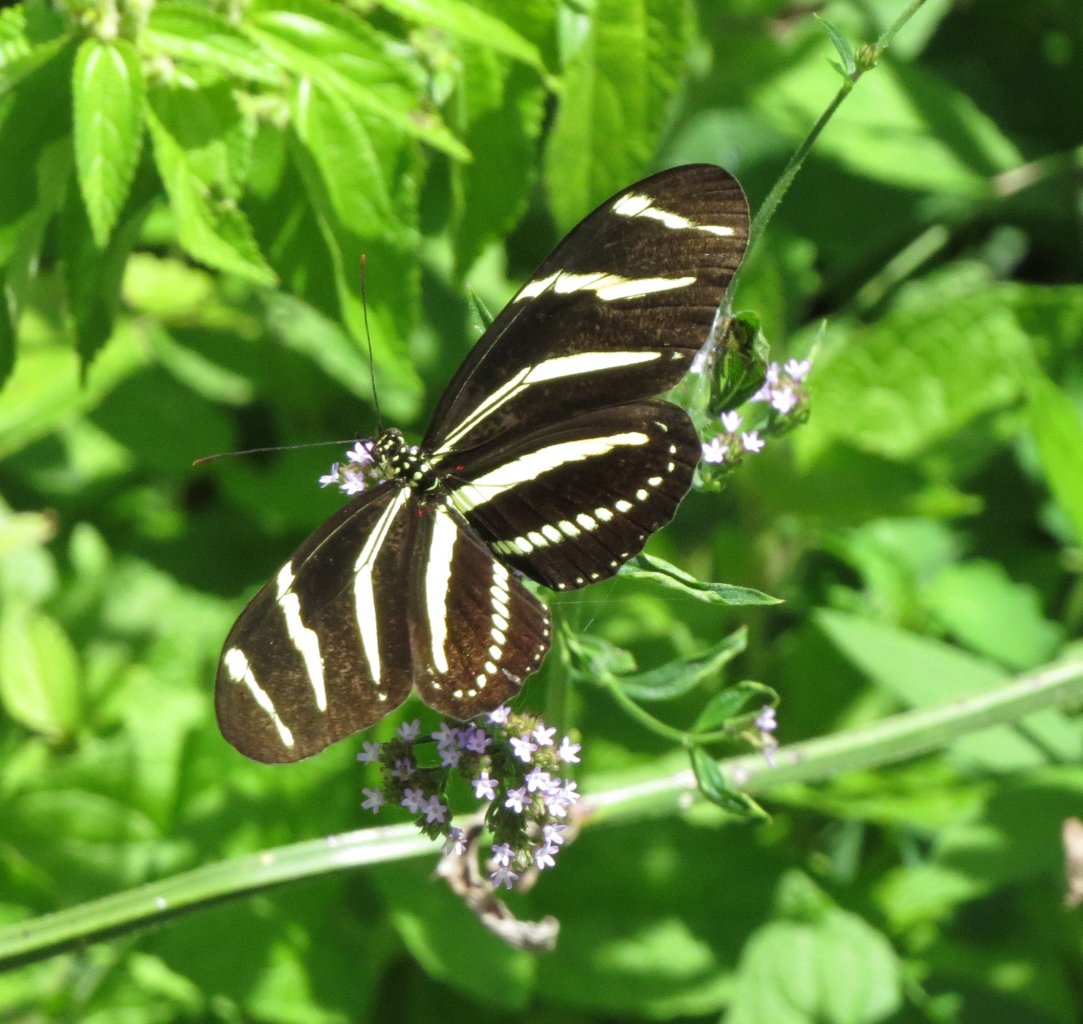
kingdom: Animalia
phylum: Arthropoda
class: Insecta
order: Lepidoptera
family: Nymphalidae
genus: Heliconius
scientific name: Heliconius charithonia
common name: Zebra Longwing
